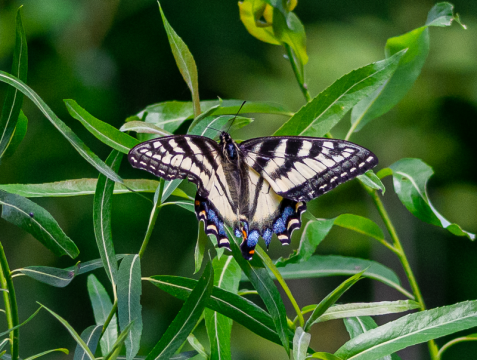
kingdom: Animalia
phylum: Arthropoda
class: Insecta
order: Lepidoptera
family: Papilionidae
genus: Pterourus
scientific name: Pterourus canadensis
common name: Canadian Tiger Swallowtail
